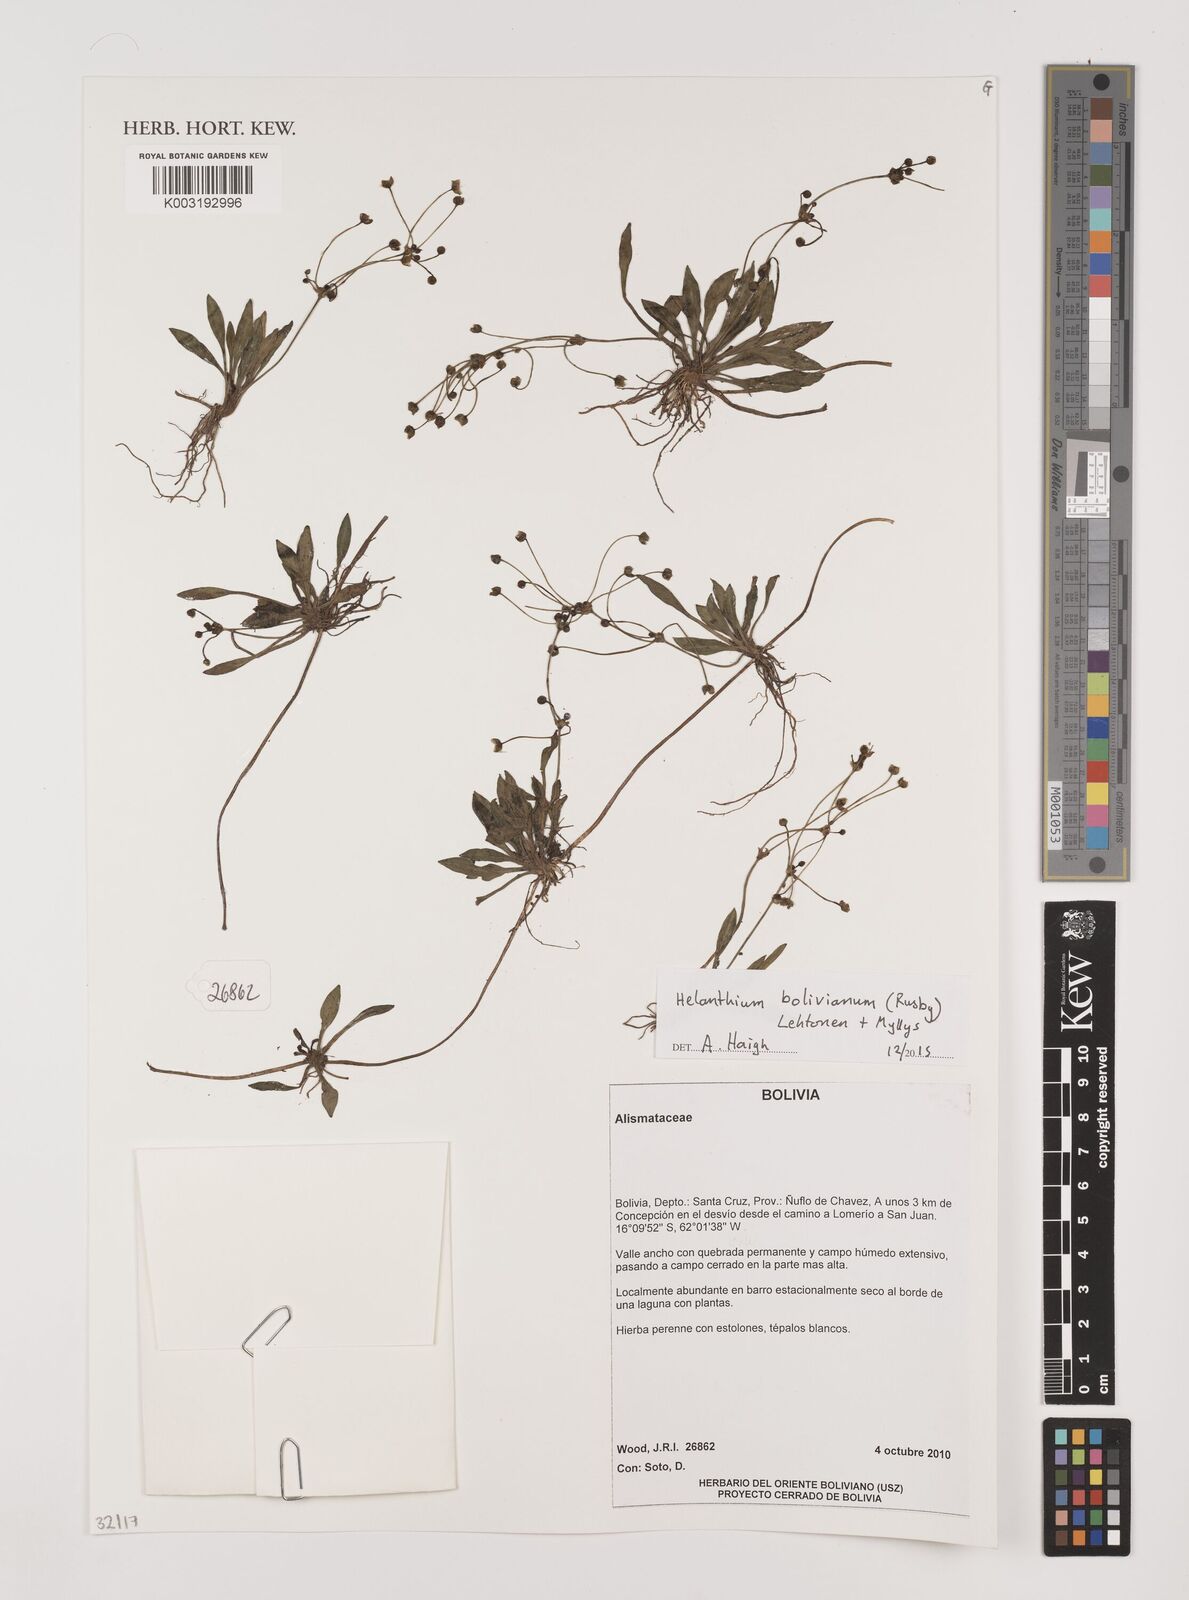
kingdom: Plantae
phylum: Tracheophyta
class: Liliopsida
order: Alismatales
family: Alismataceae
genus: Helanthium
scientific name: Helanthium bolivianum
